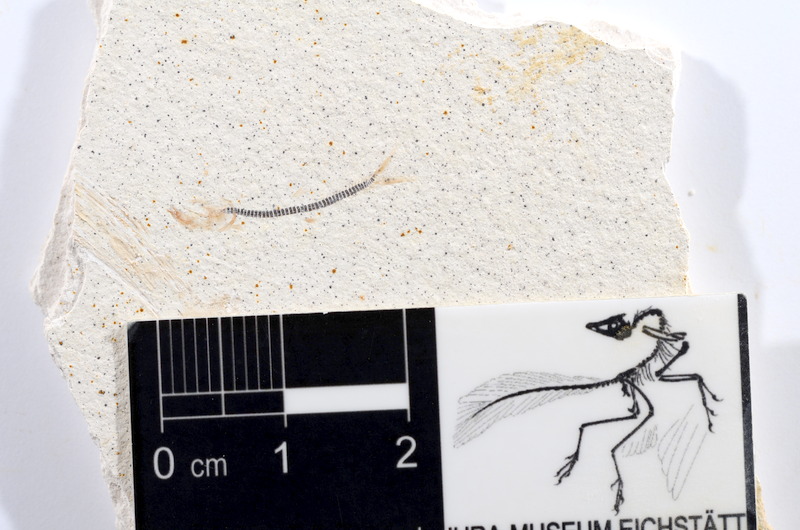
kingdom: Animalia
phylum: Chordata
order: Salmoniformes
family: Orthogonikleithridae
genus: Orthogonikleithrus
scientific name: Orthogonikleithrus hoelli
